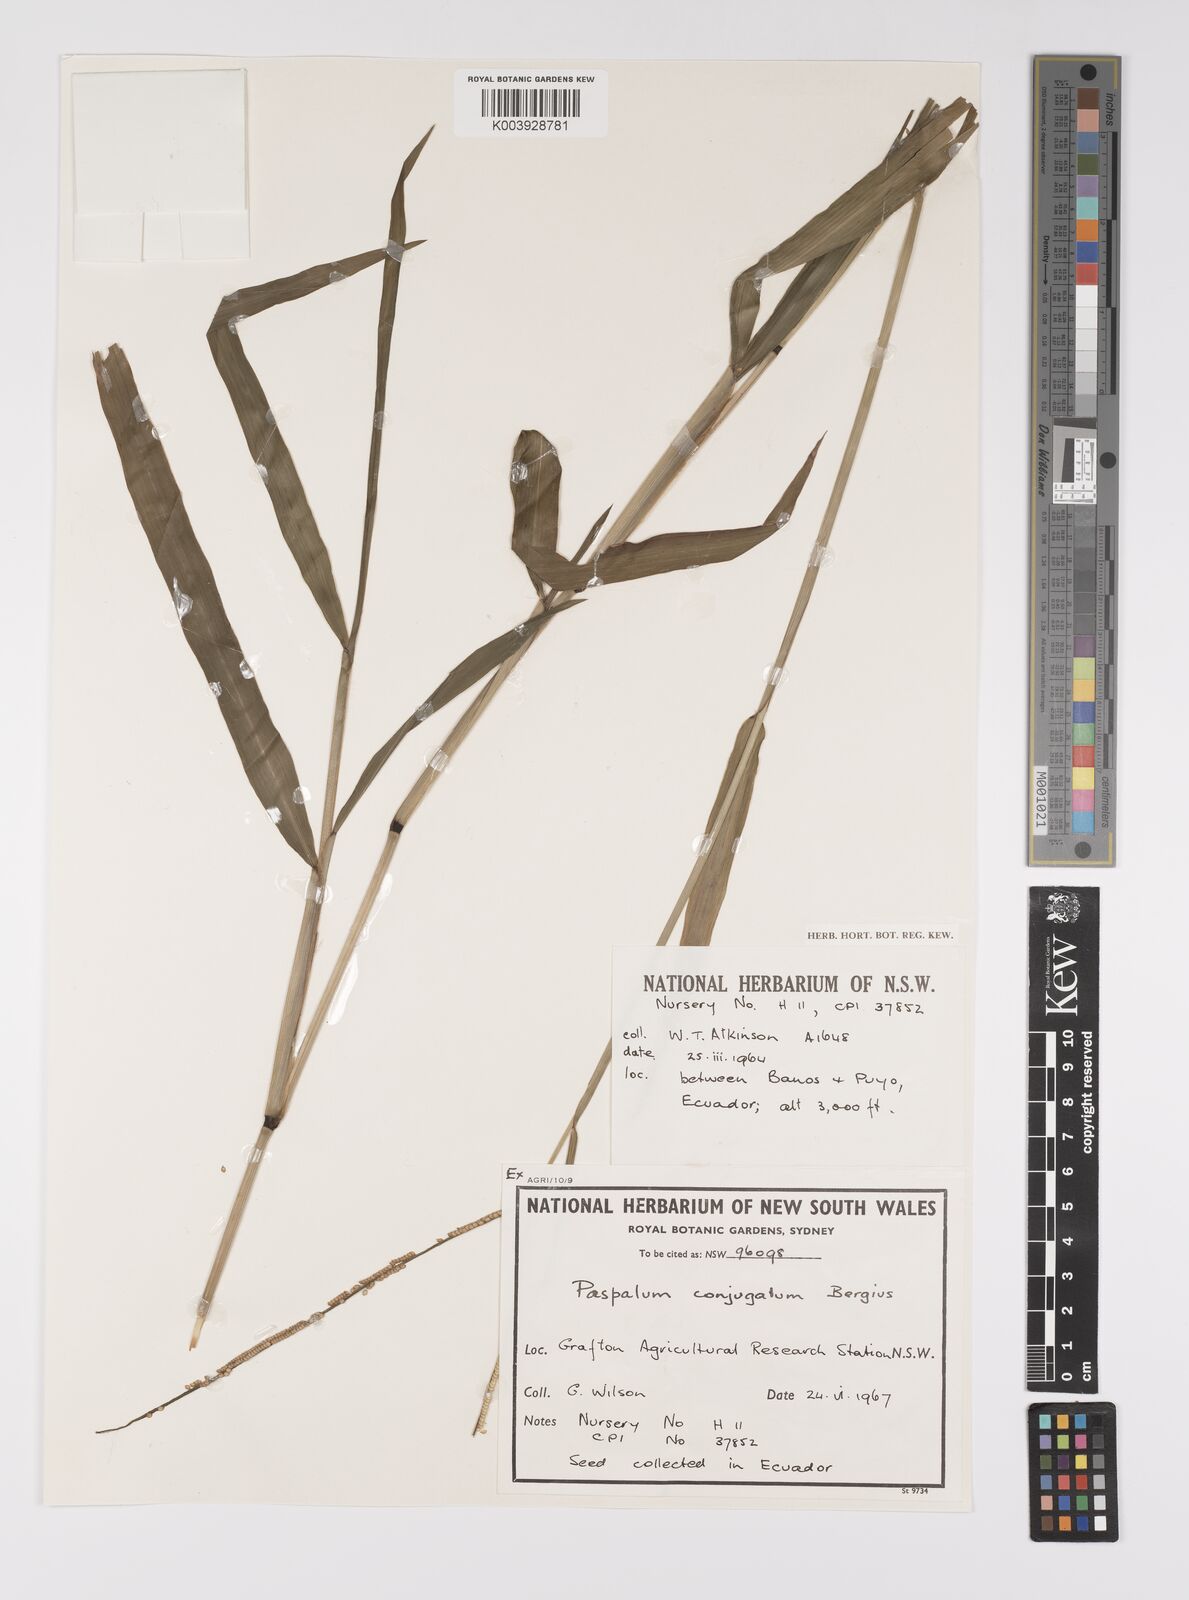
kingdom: Plantae
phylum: Tracheophyta
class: Liliopsida
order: Poales
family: Poaceae
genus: Paspalum
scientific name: Paspalum conjugatum
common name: Hilograss
